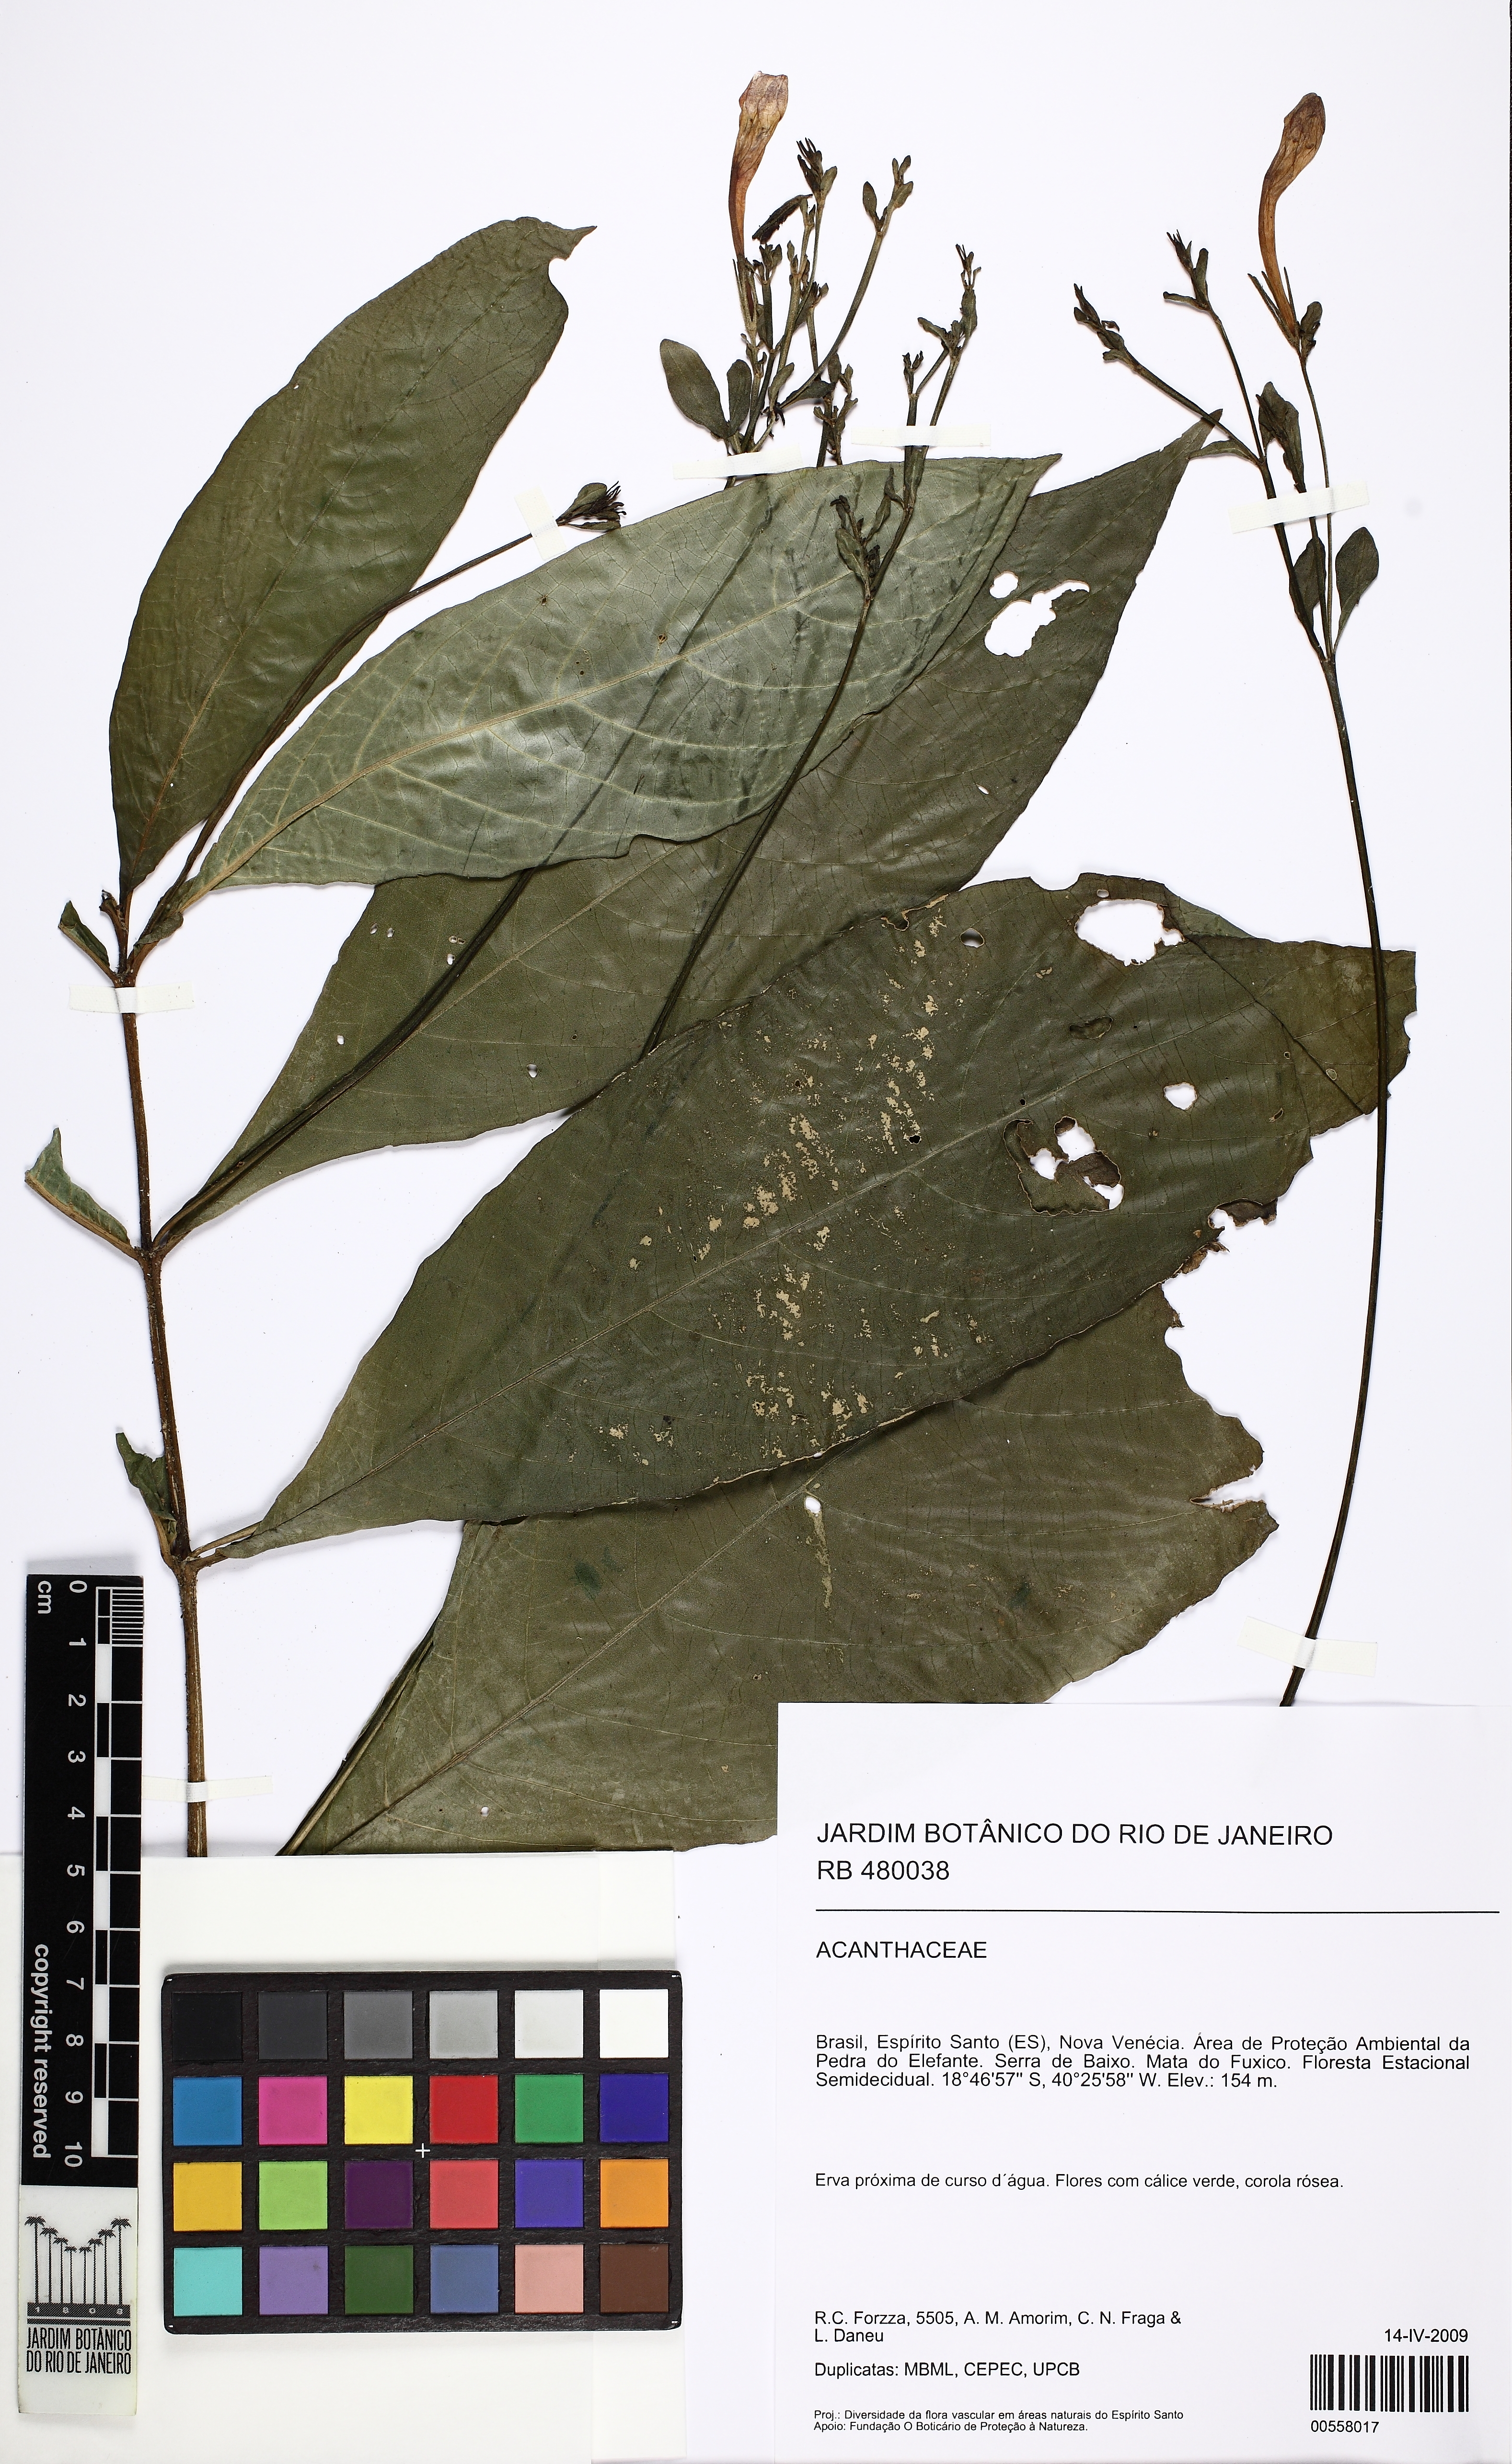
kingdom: Plantae
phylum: Tracheophyta
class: Magnoliopsida
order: Lamiales
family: Acanthaceae
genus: Ruellia
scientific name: Ruellia subsessilis
